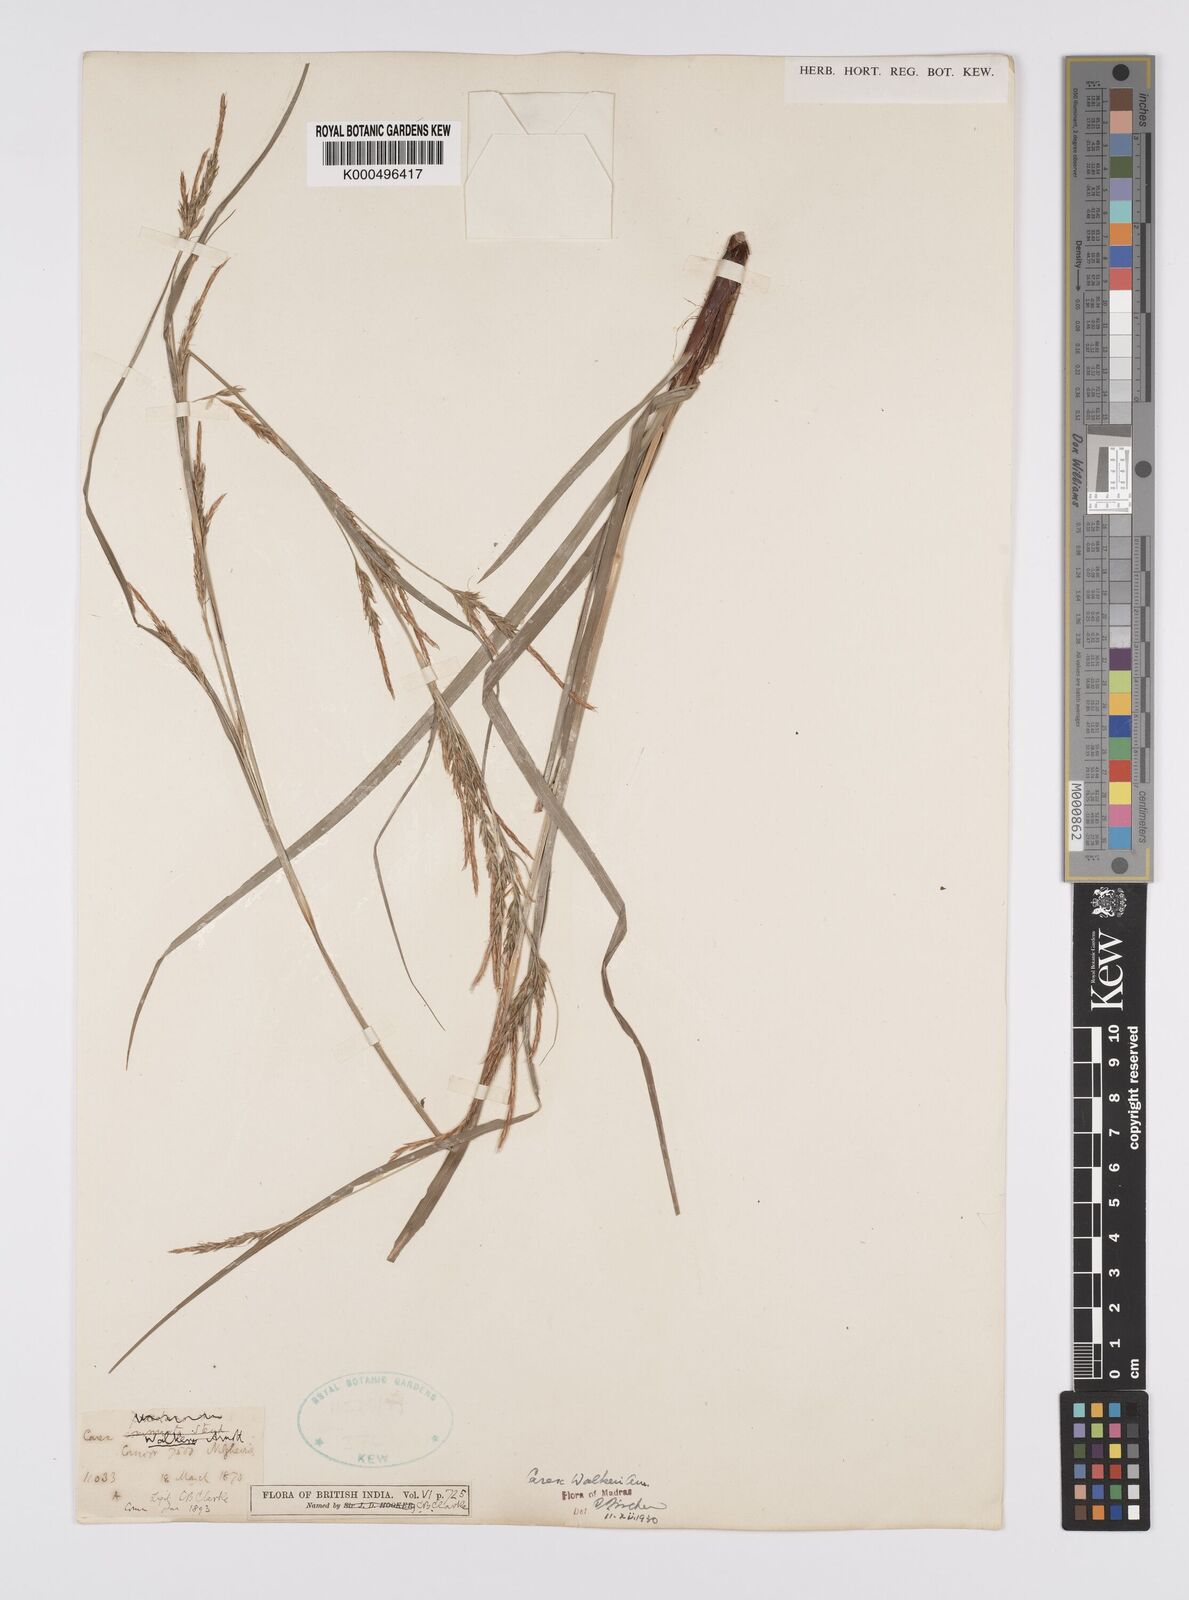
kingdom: Plantae
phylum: Tracheophyta
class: Liliopsida
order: Poales
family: Cyperaceae
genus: Carex
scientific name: Carex walkeri
